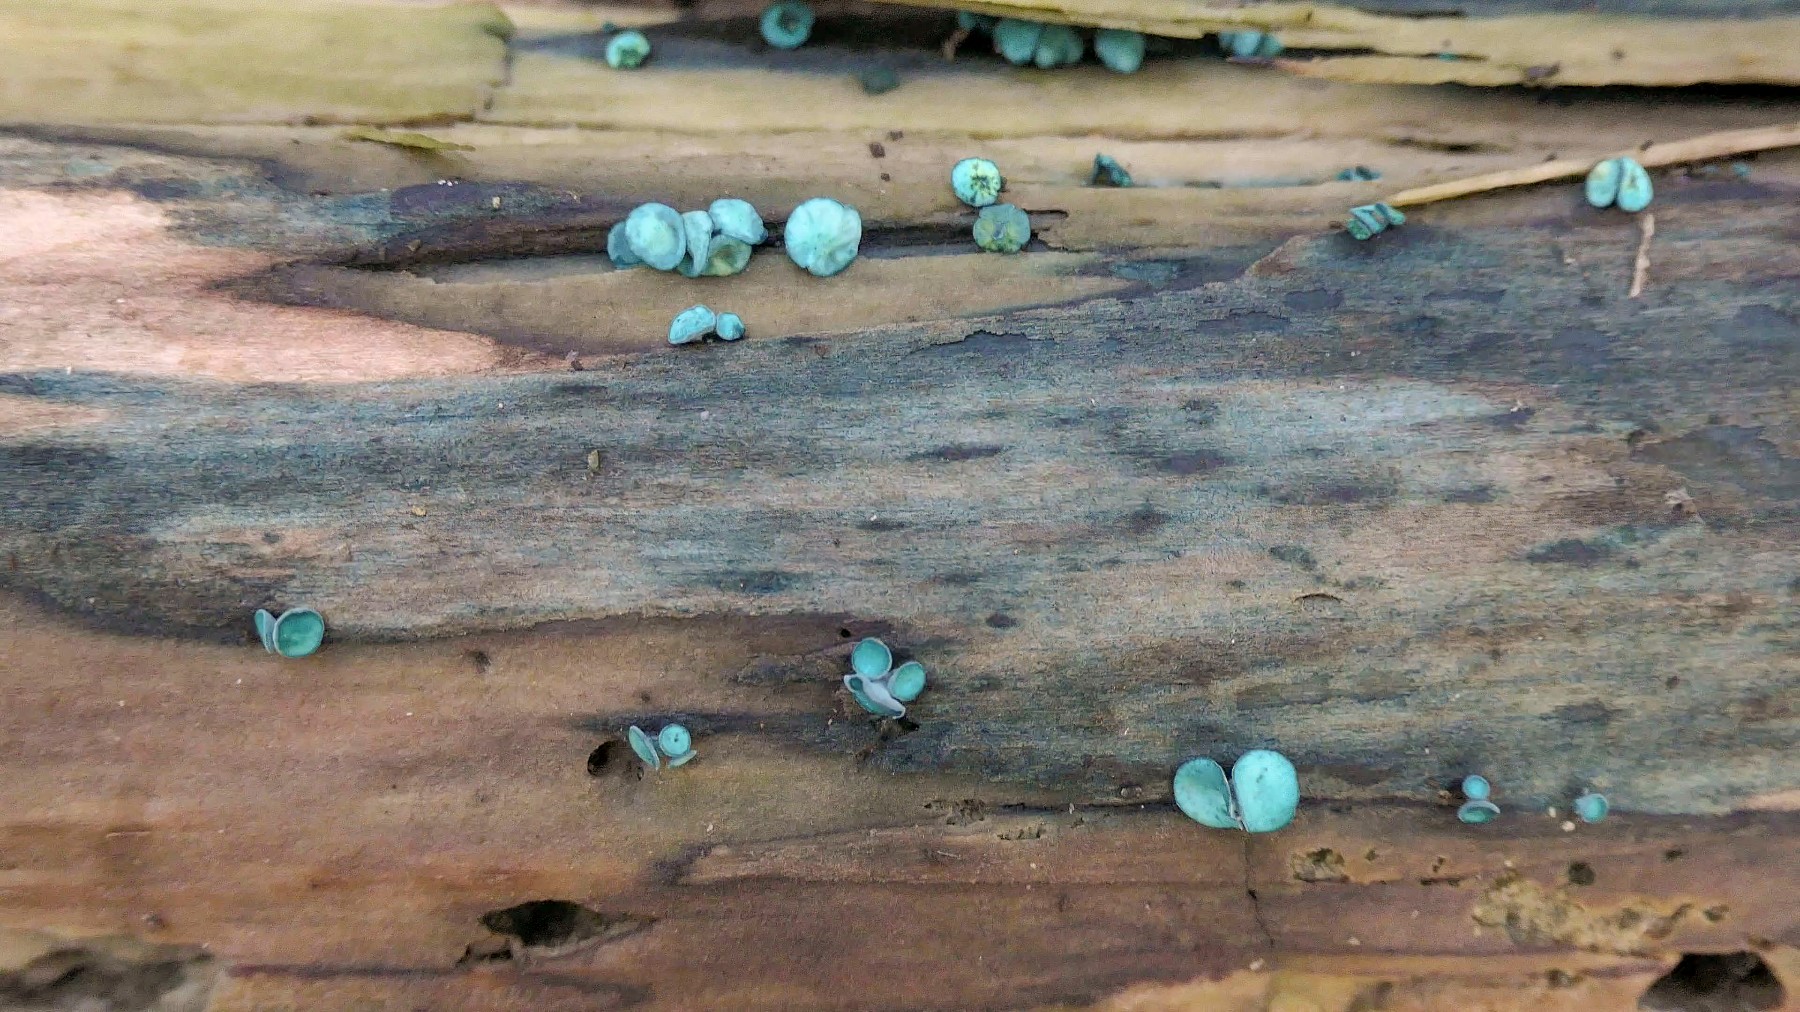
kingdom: Fungi
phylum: Ascomycota
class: Leotiomycetes
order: Helotiales
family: Chlorociboriaceae
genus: Chlorociboria
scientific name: Chlorociboria aeruginascens
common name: almindelig grønskive
